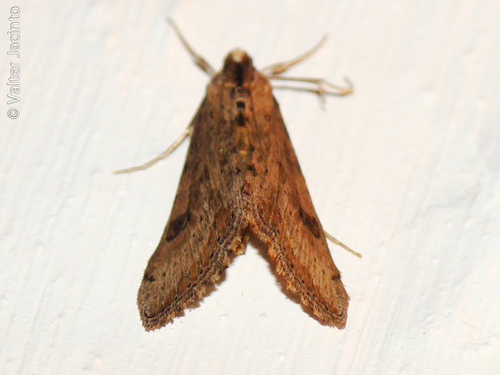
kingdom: Animalia
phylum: Arthropoda
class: Insecta
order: Lepidoptera
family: Crambidae
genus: Evergestis
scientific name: Evergestis isatidalis
